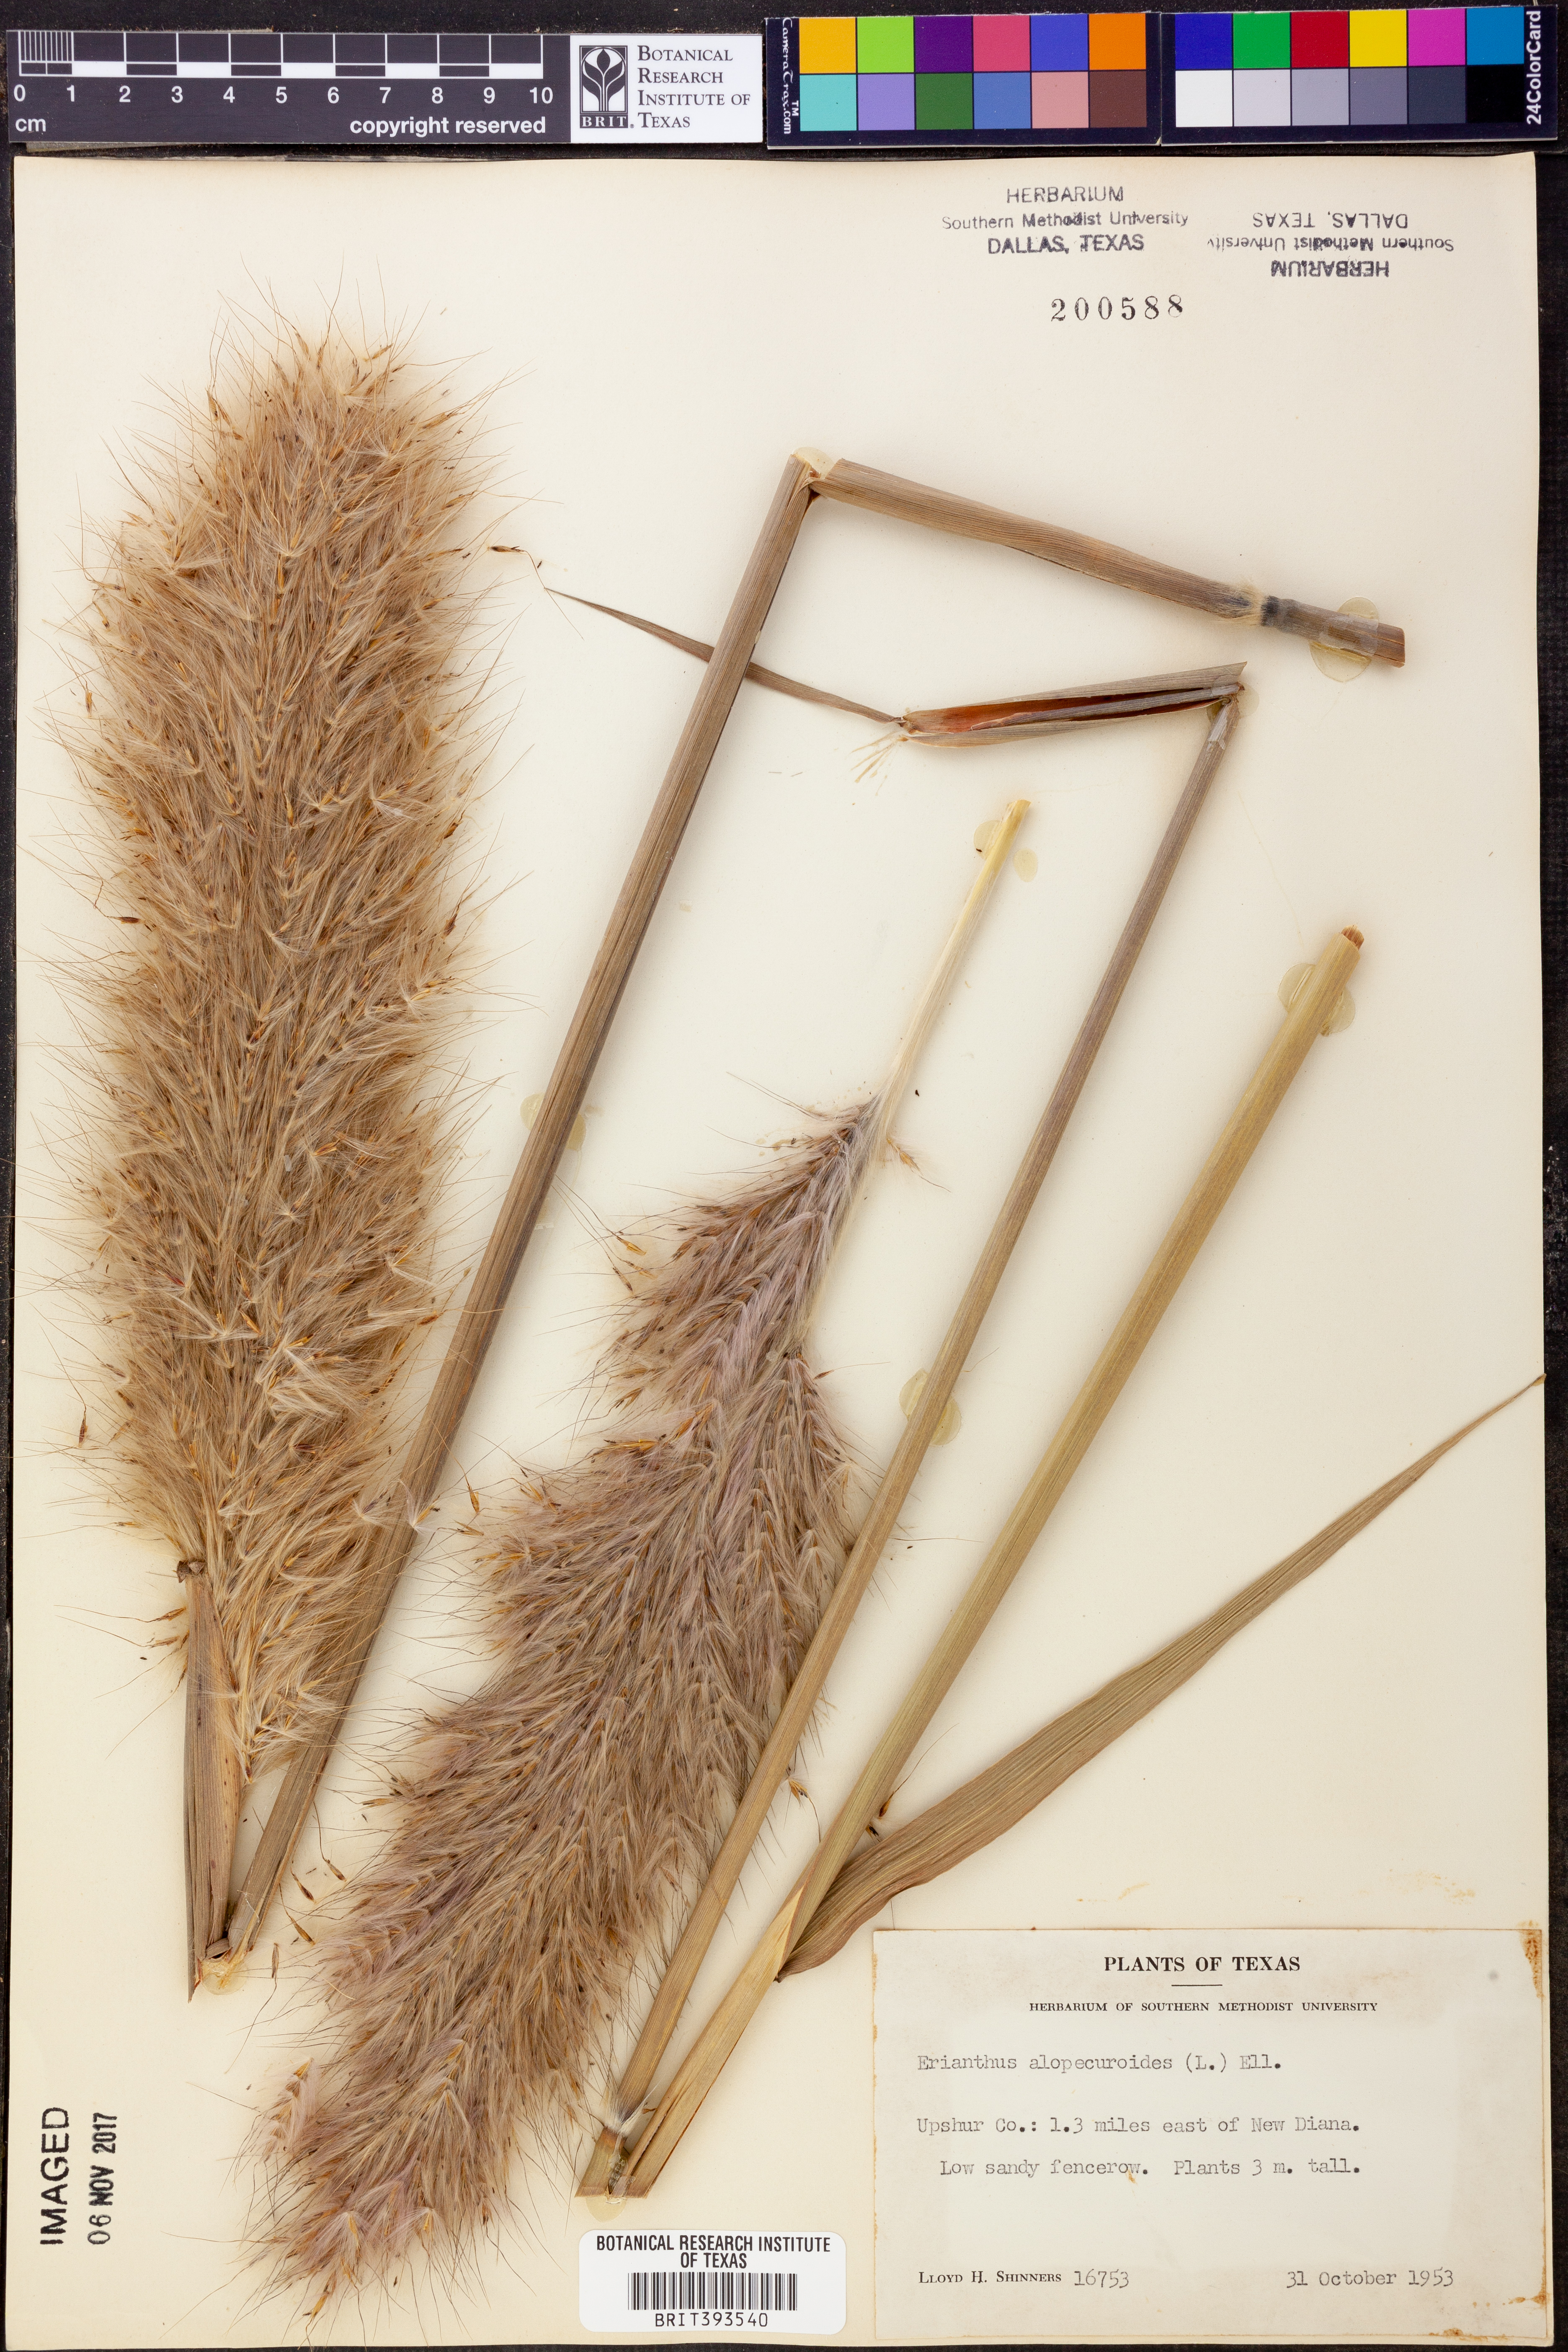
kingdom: Plantae
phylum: Tracheophyta
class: Liliopsida
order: Poales
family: Poaceae
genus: Erianthus
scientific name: Erianthus alopecuroides
